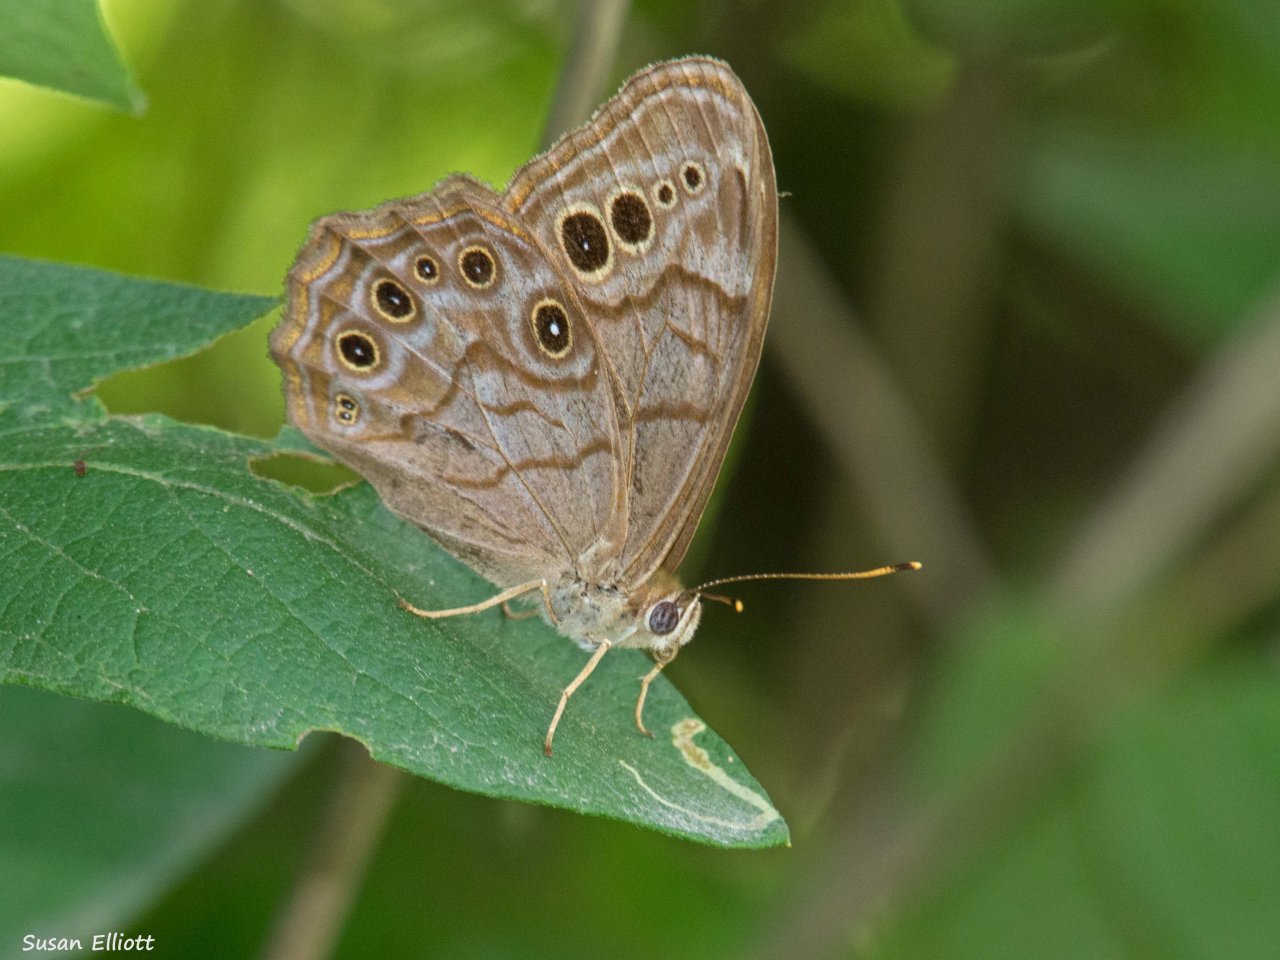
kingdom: Animalia
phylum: Arthropoda
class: Insecta
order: Lepidoptera
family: Nymphalidae
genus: Lethe
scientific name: Lethe anthedon
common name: Northern Pearly-Eye
